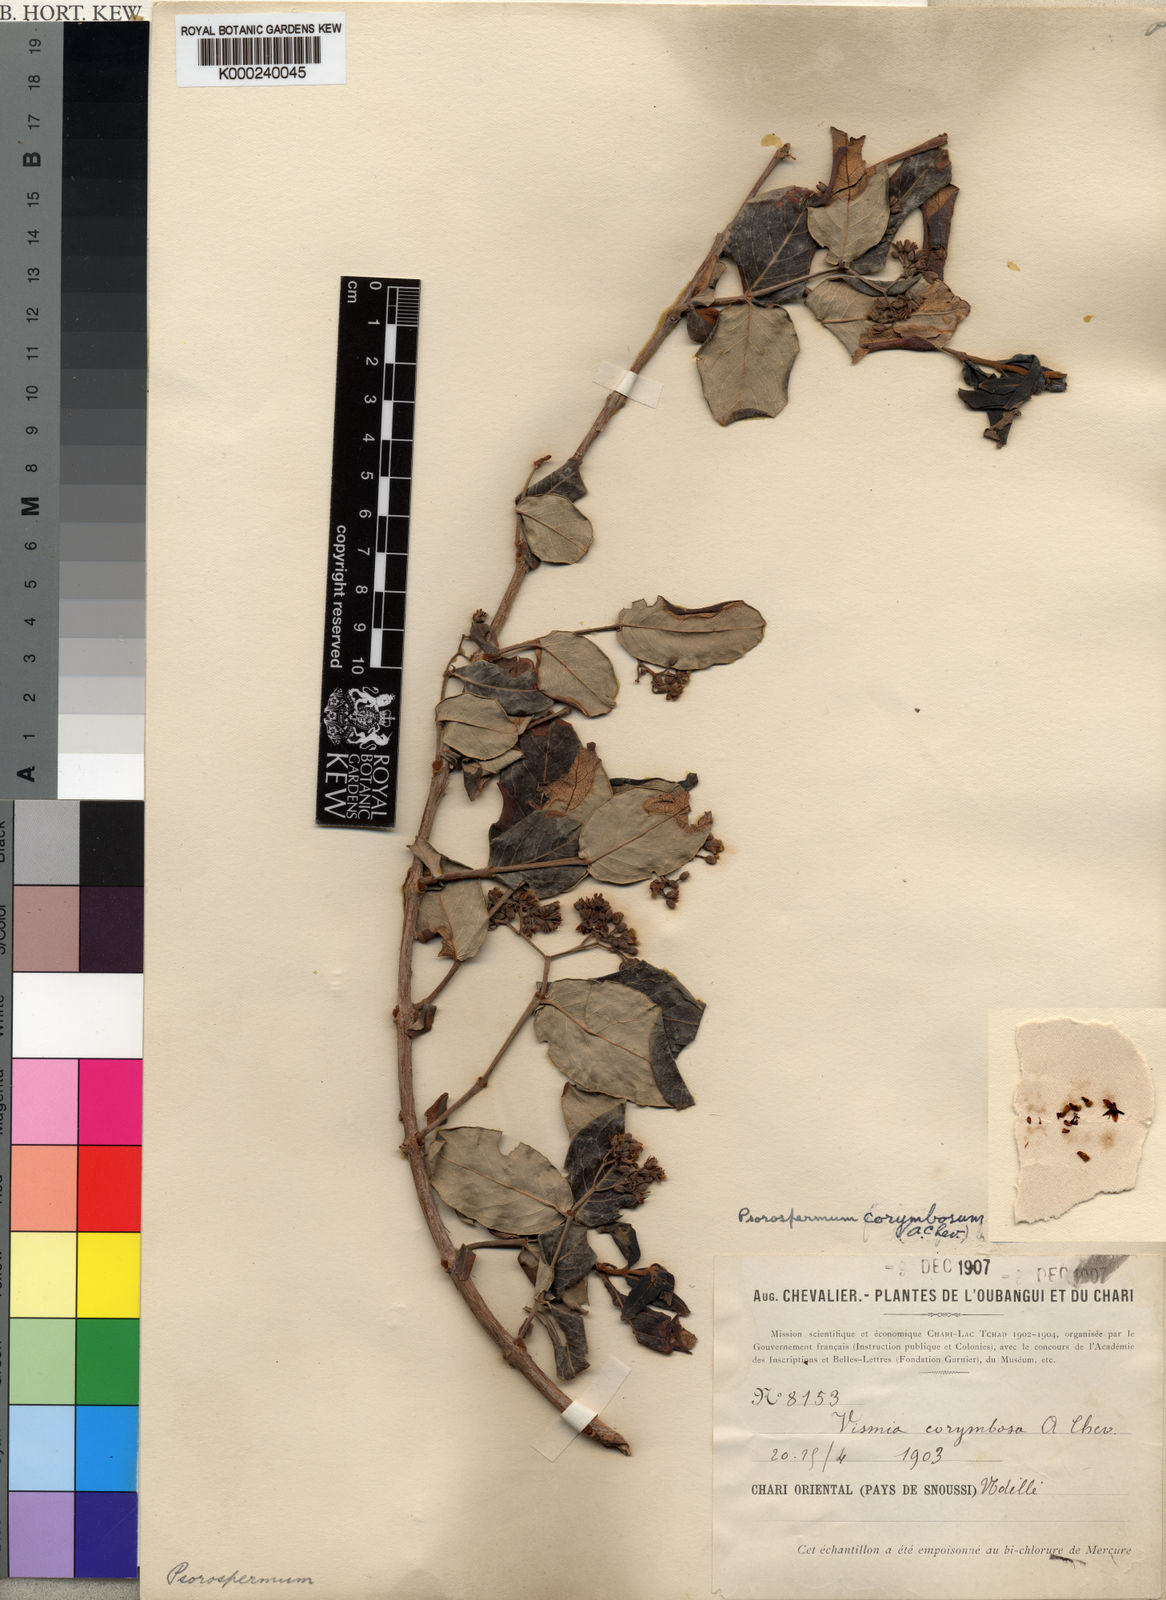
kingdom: Plantae
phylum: Tracheophyta
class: Magnoliopsida
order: Malpighiales
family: Hypericaceae
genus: Psorospermum
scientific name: Psorospermum
